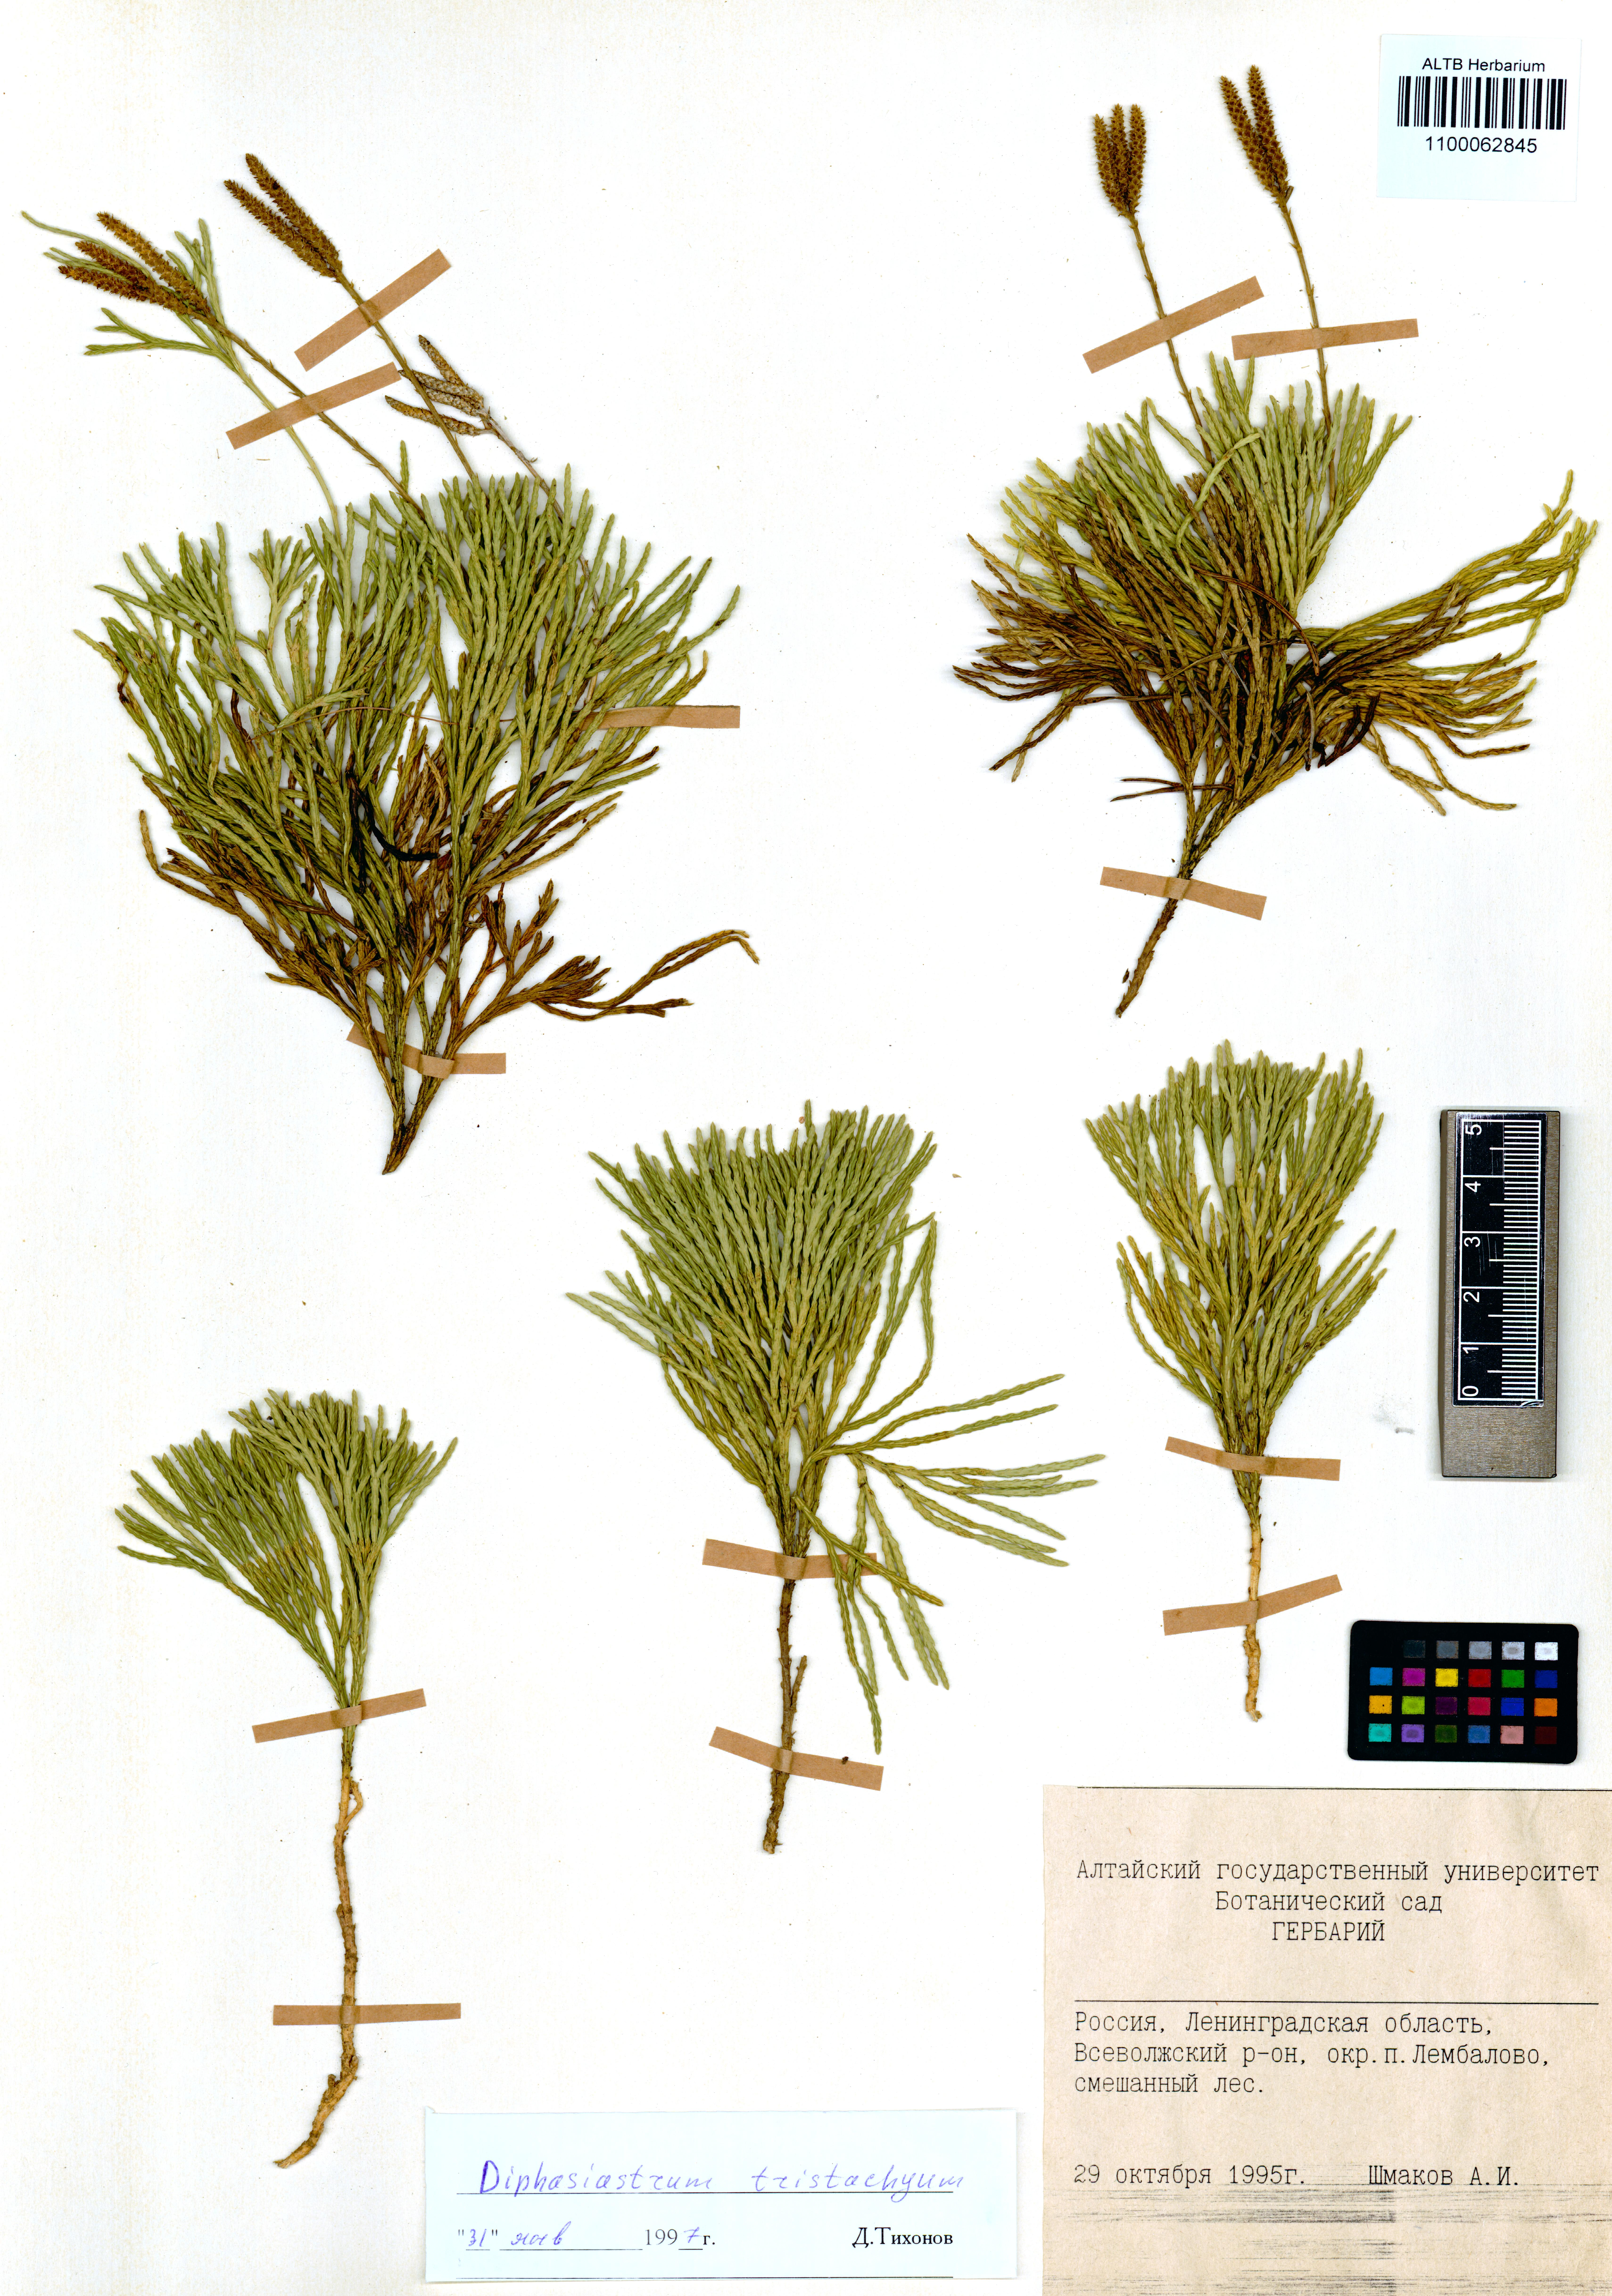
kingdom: Plantae
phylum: Tracheophyta
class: Lycopodiopsida
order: Lycopodiales
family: Lycopodiaceae
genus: Diphasiastrum
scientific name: Diphasiastrum tristachyum
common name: Blue ground-cedar
